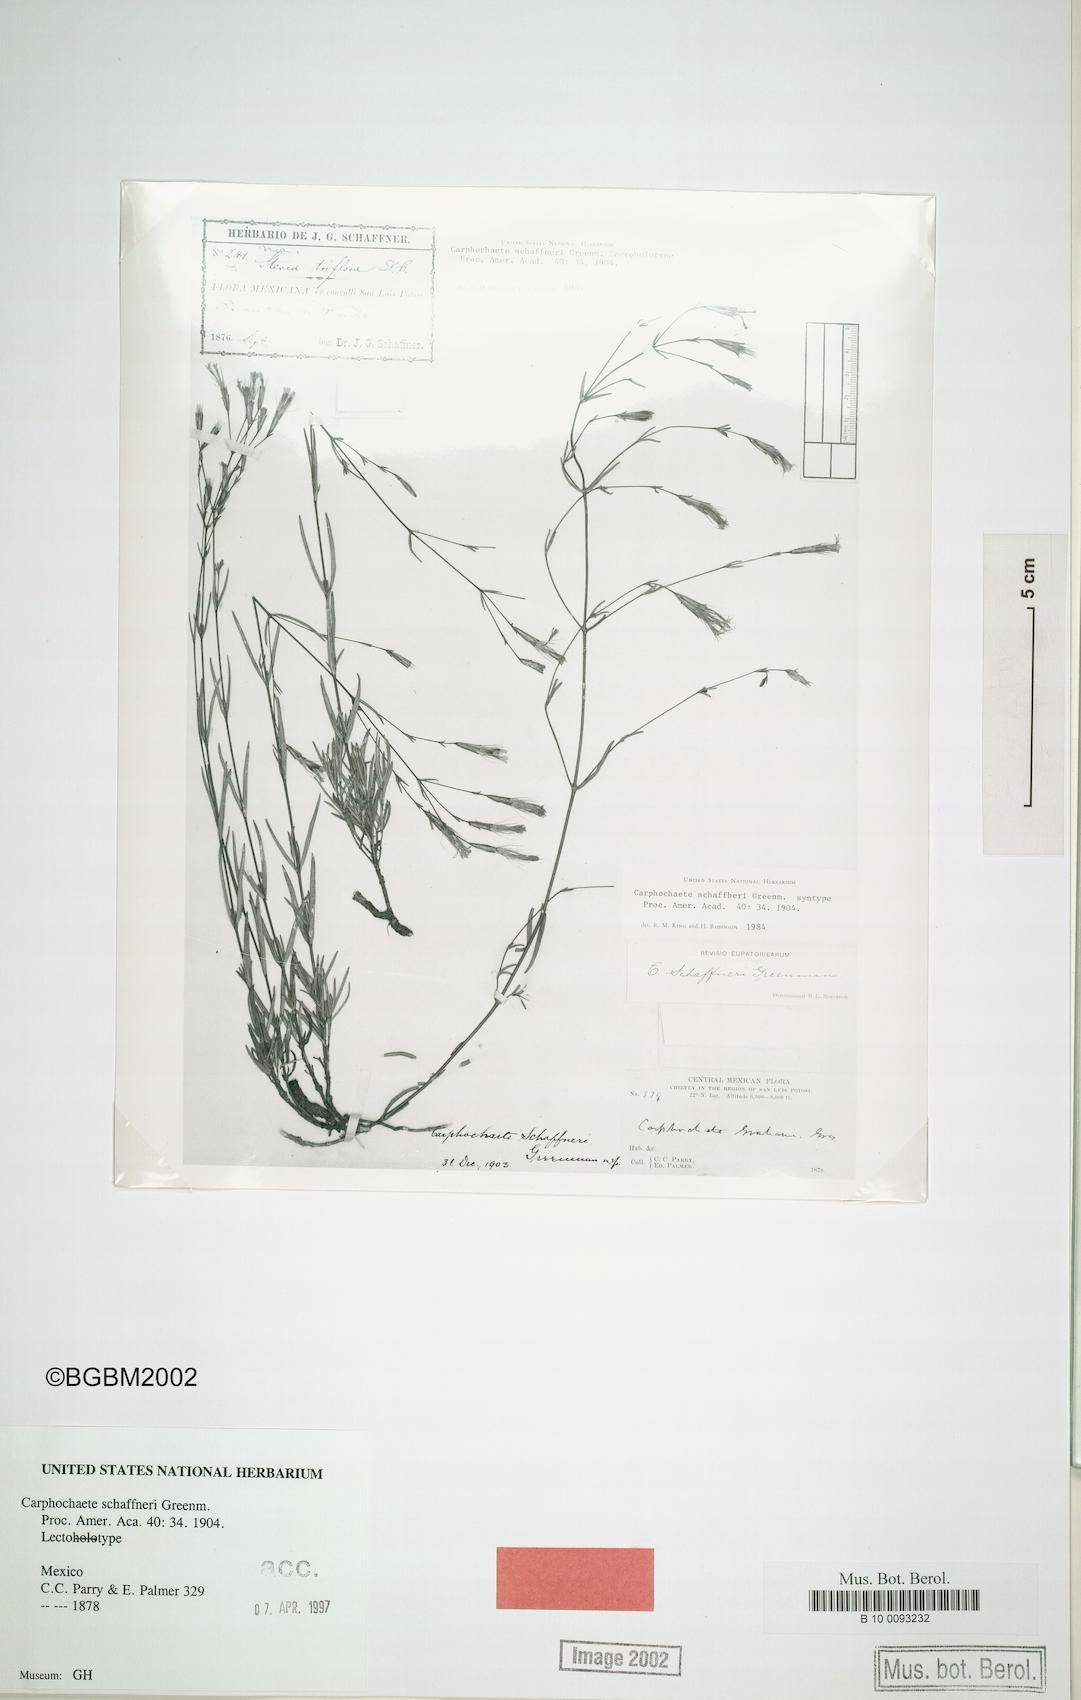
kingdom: Plantae
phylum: Tracheophyta
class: Magnoliopsida
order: Asterales
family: Asteraceae
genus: Carphochaete
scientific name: Carphochaete schaffneri
